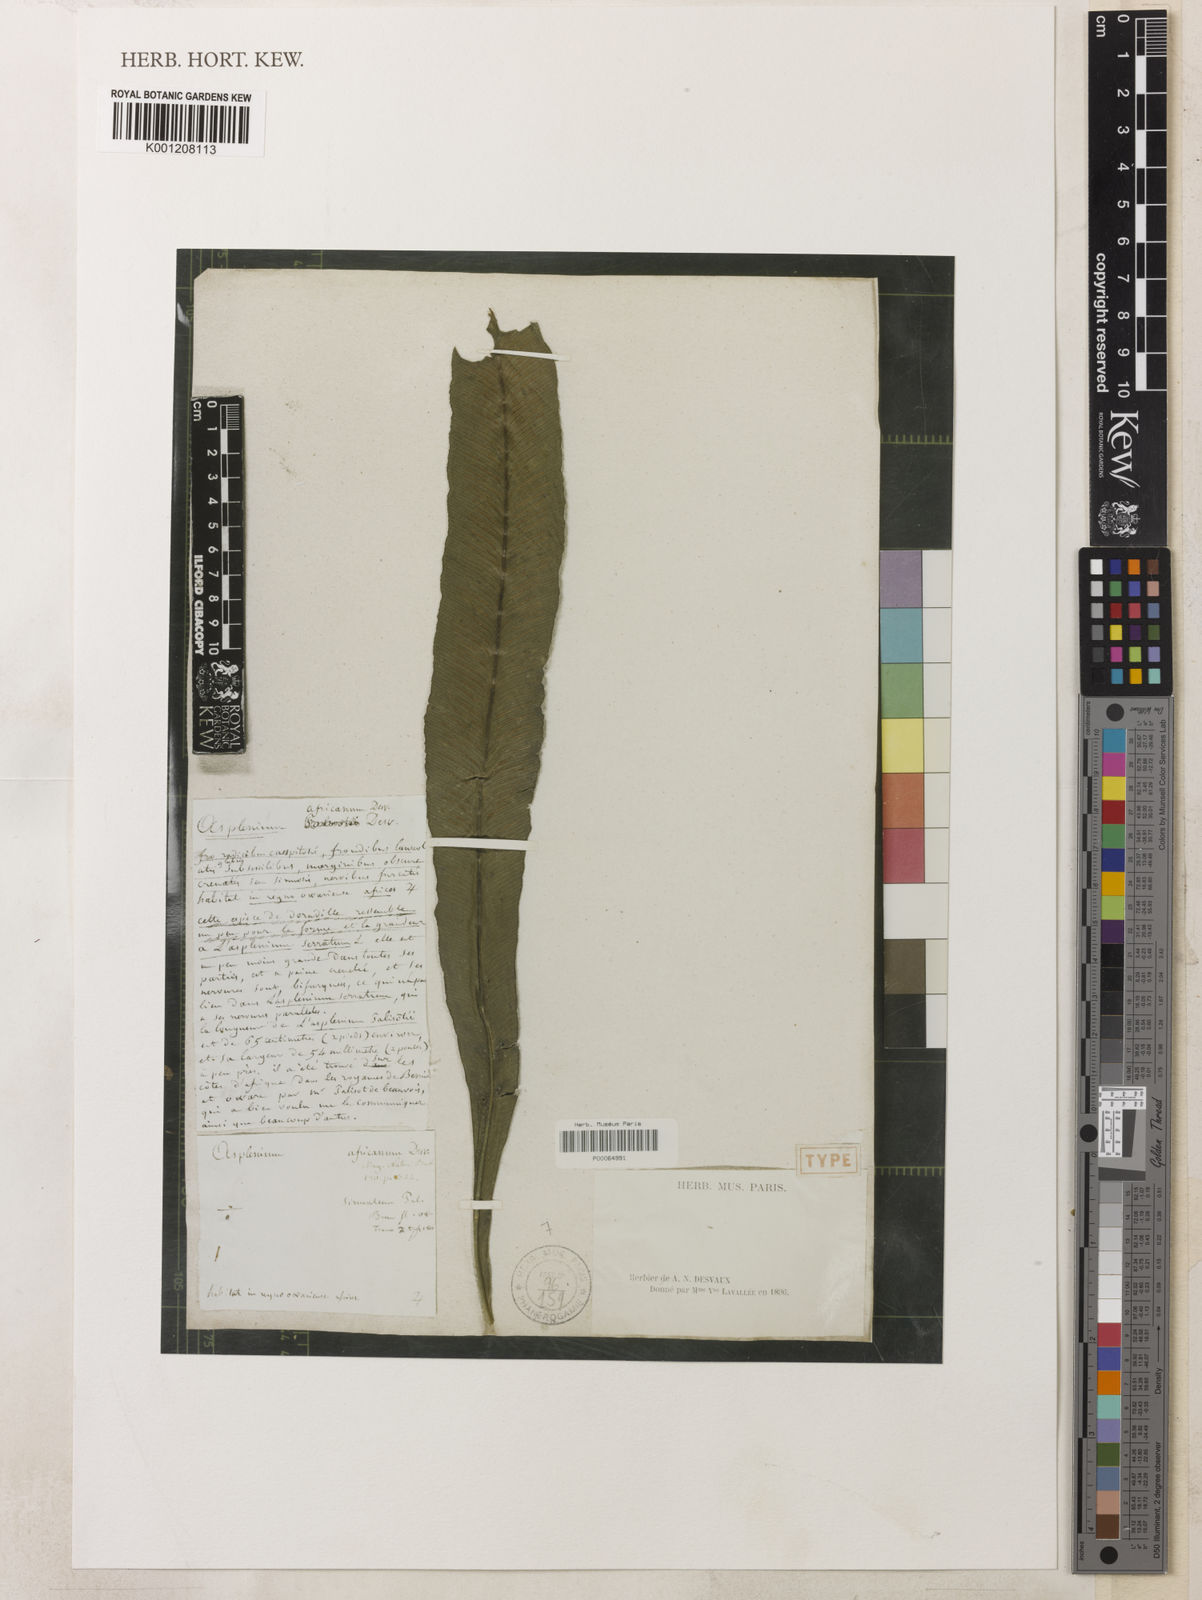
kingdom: Plantae
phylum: Tracheophyta
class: Polypodiopsida
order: Polypodiales
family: Aspleniaceae
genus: Asplenium
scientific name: Asplenium africanum
